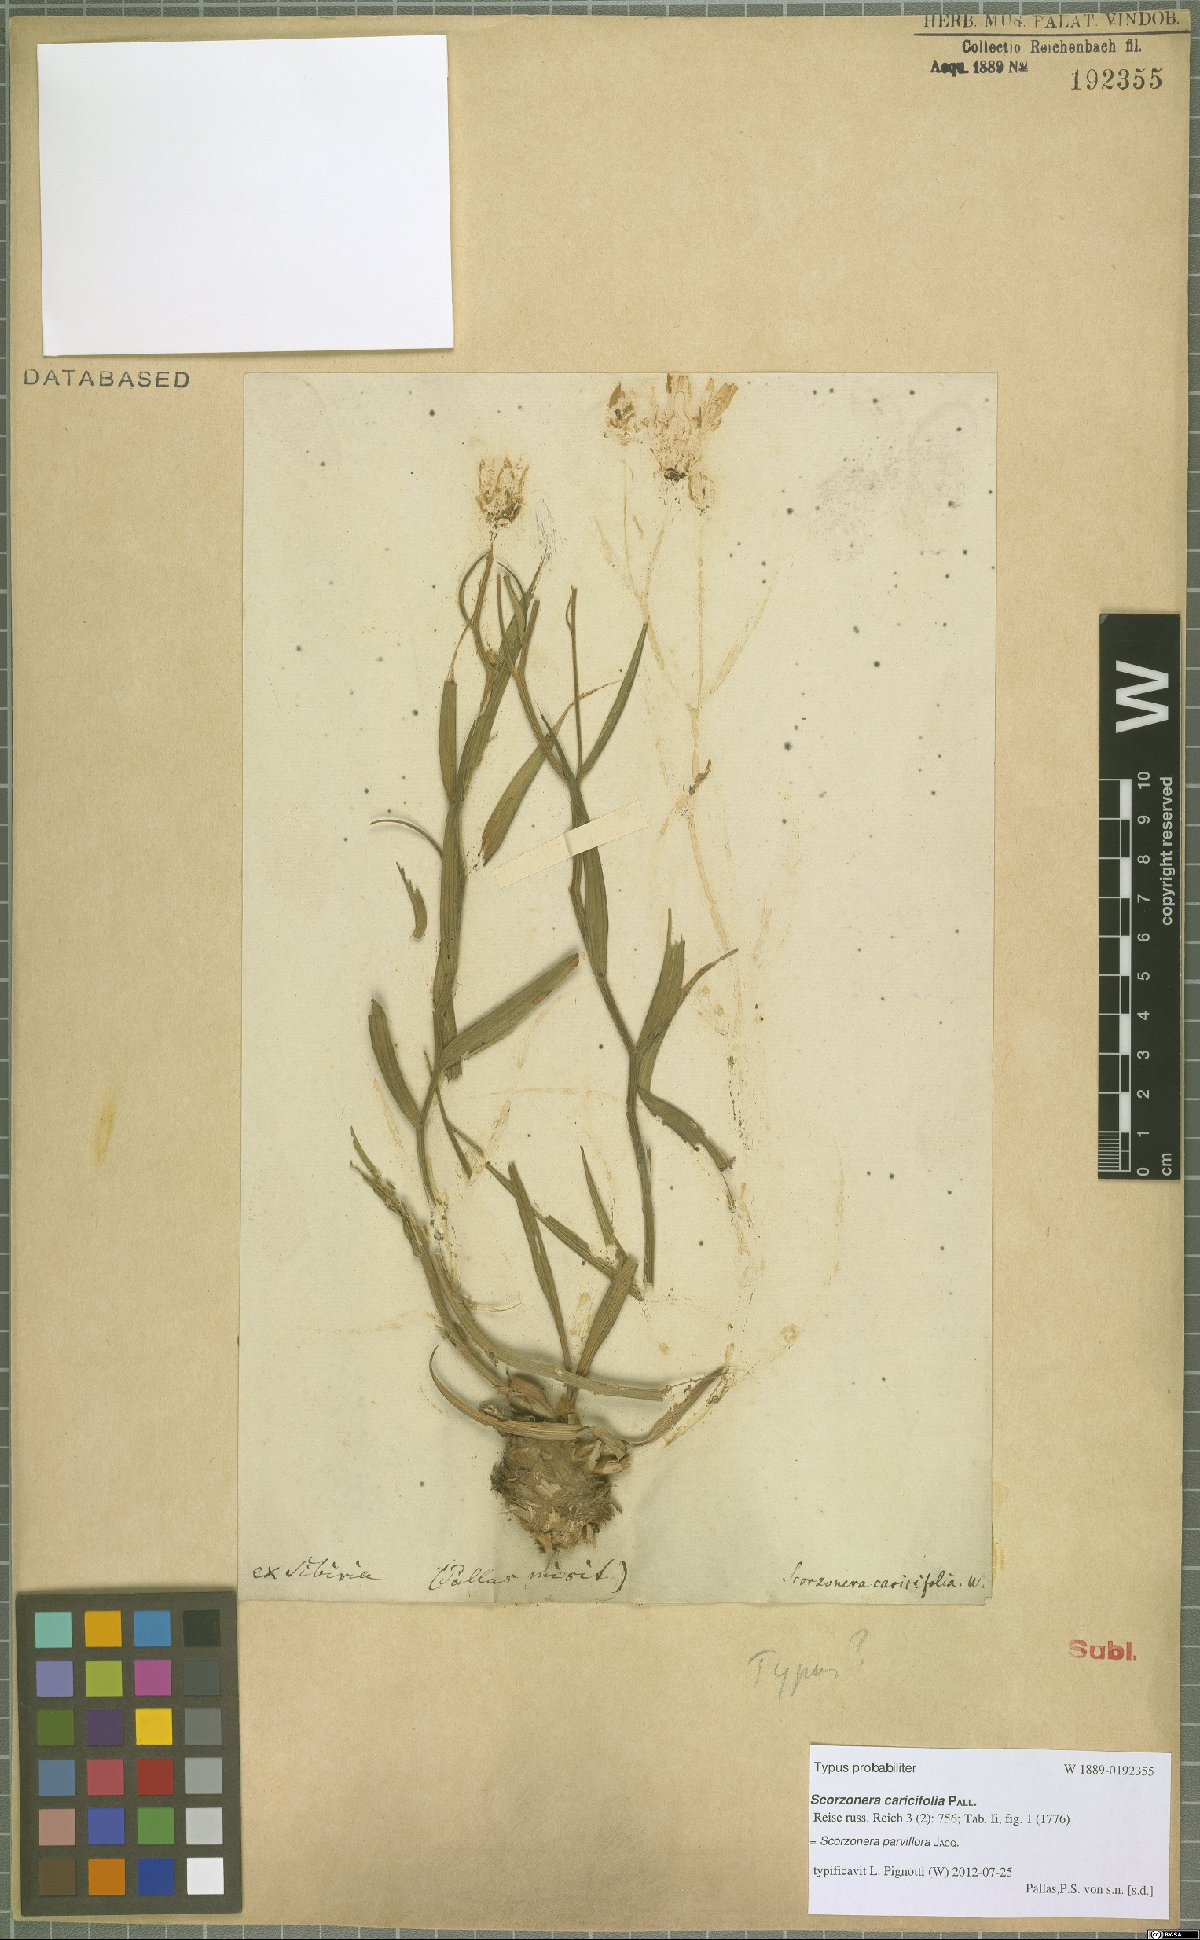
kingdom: Plantae
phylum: Tracheophyta
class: Magnoliopsida
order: Asterales
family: Asteraceae
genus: Scorzonera
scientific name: Scorzonera parviflora
